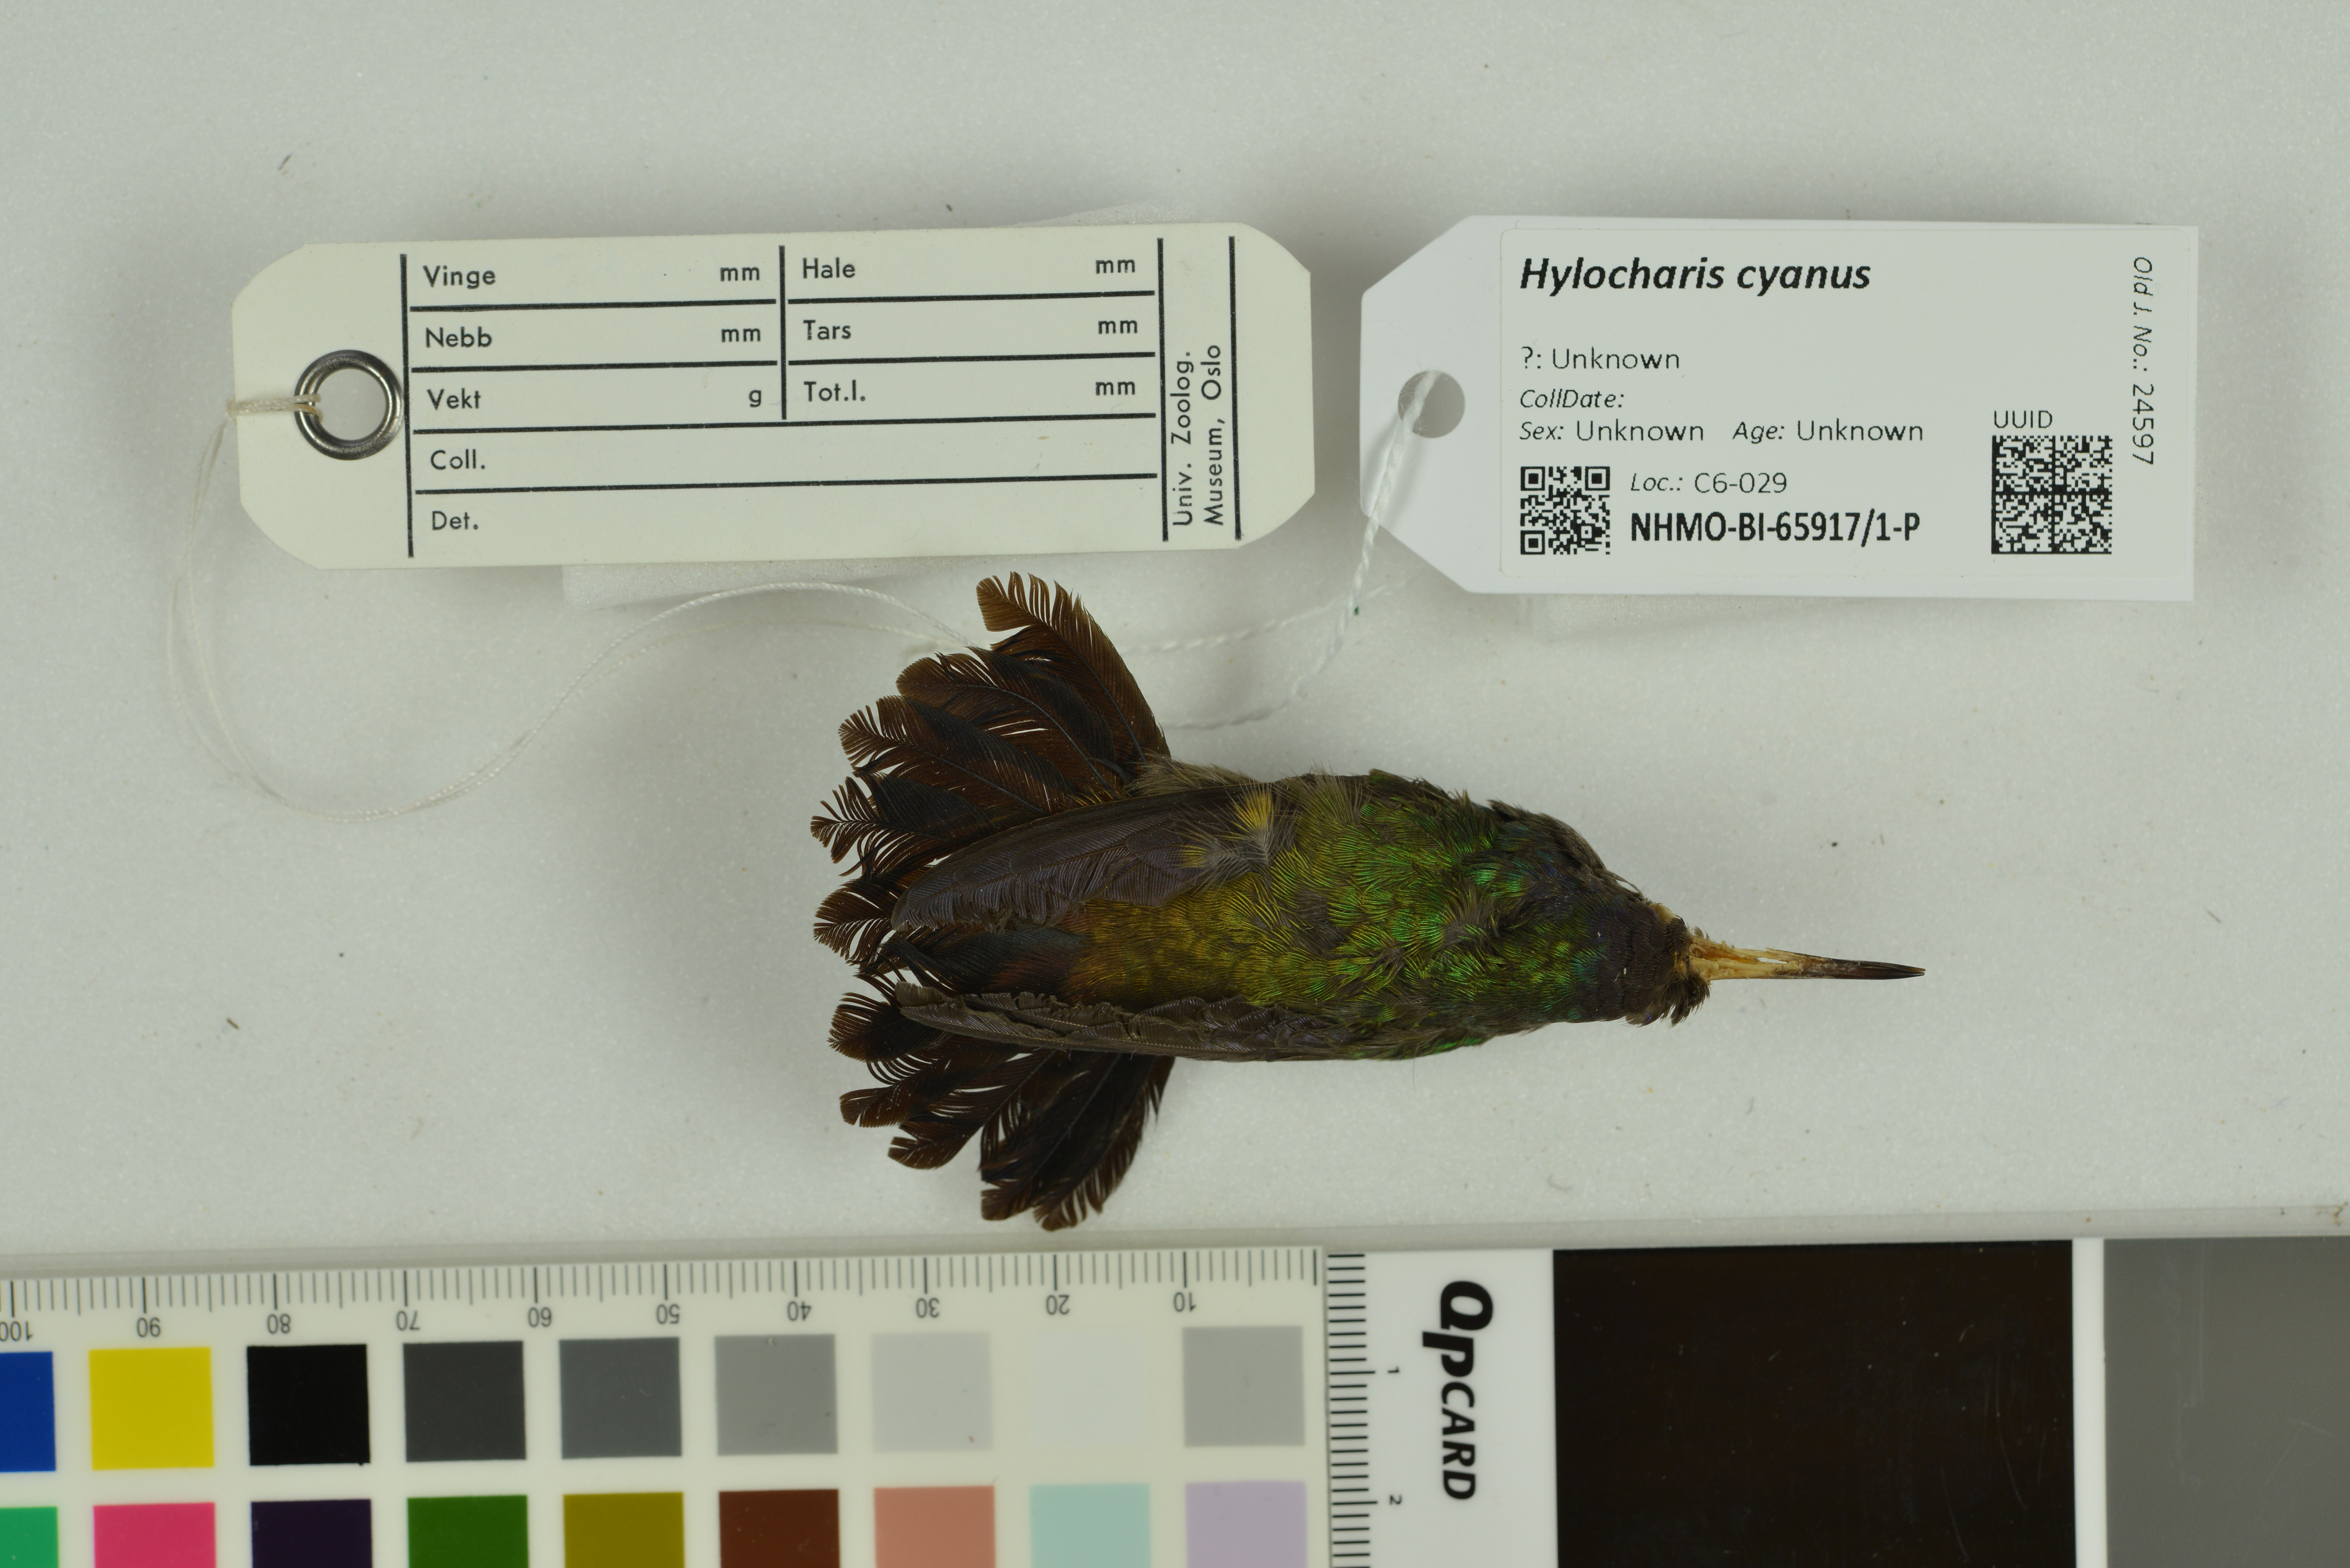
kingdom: Animalia
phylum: Chordata
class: Aves
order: Apodiformes
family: Trochilidae
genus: Chlorestes
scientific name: Chlorestes cyanus
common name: White-chinned sapphire
